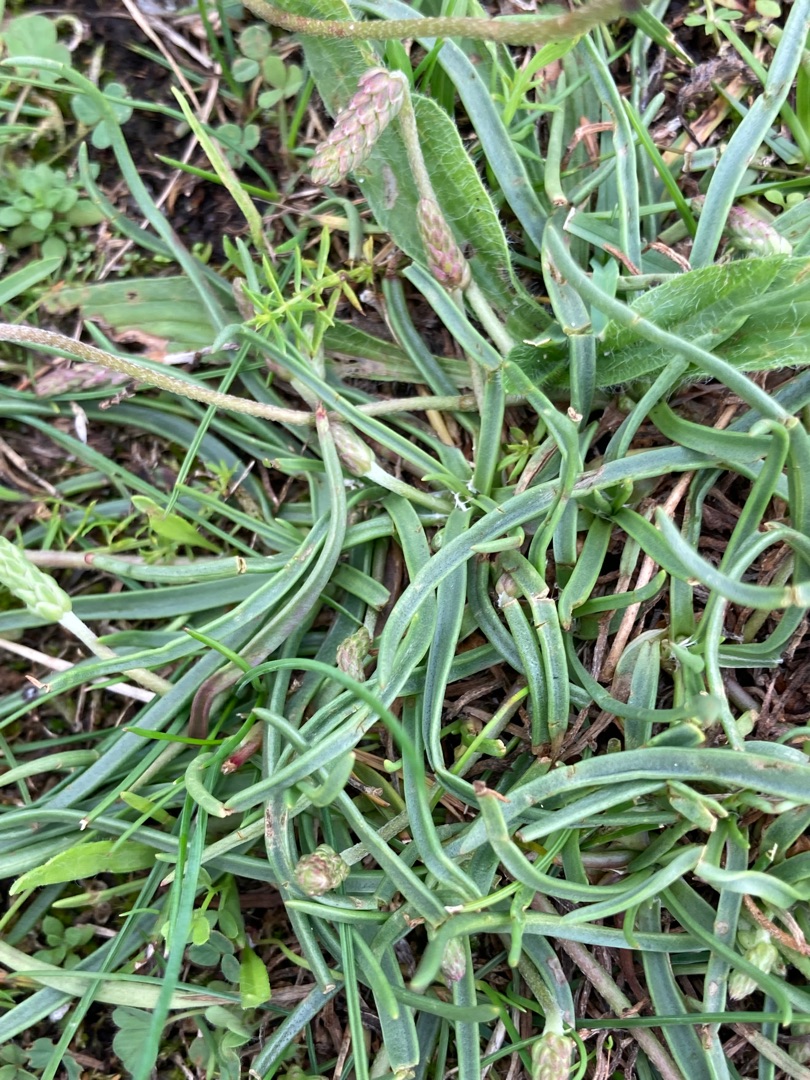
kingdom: Plantae
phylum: Tracheophyta
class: Magnoliopsida
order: Lamiales
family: Plantaginaceae
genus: Plantago
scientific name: Plantago maritima
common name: Strand-vejbred
